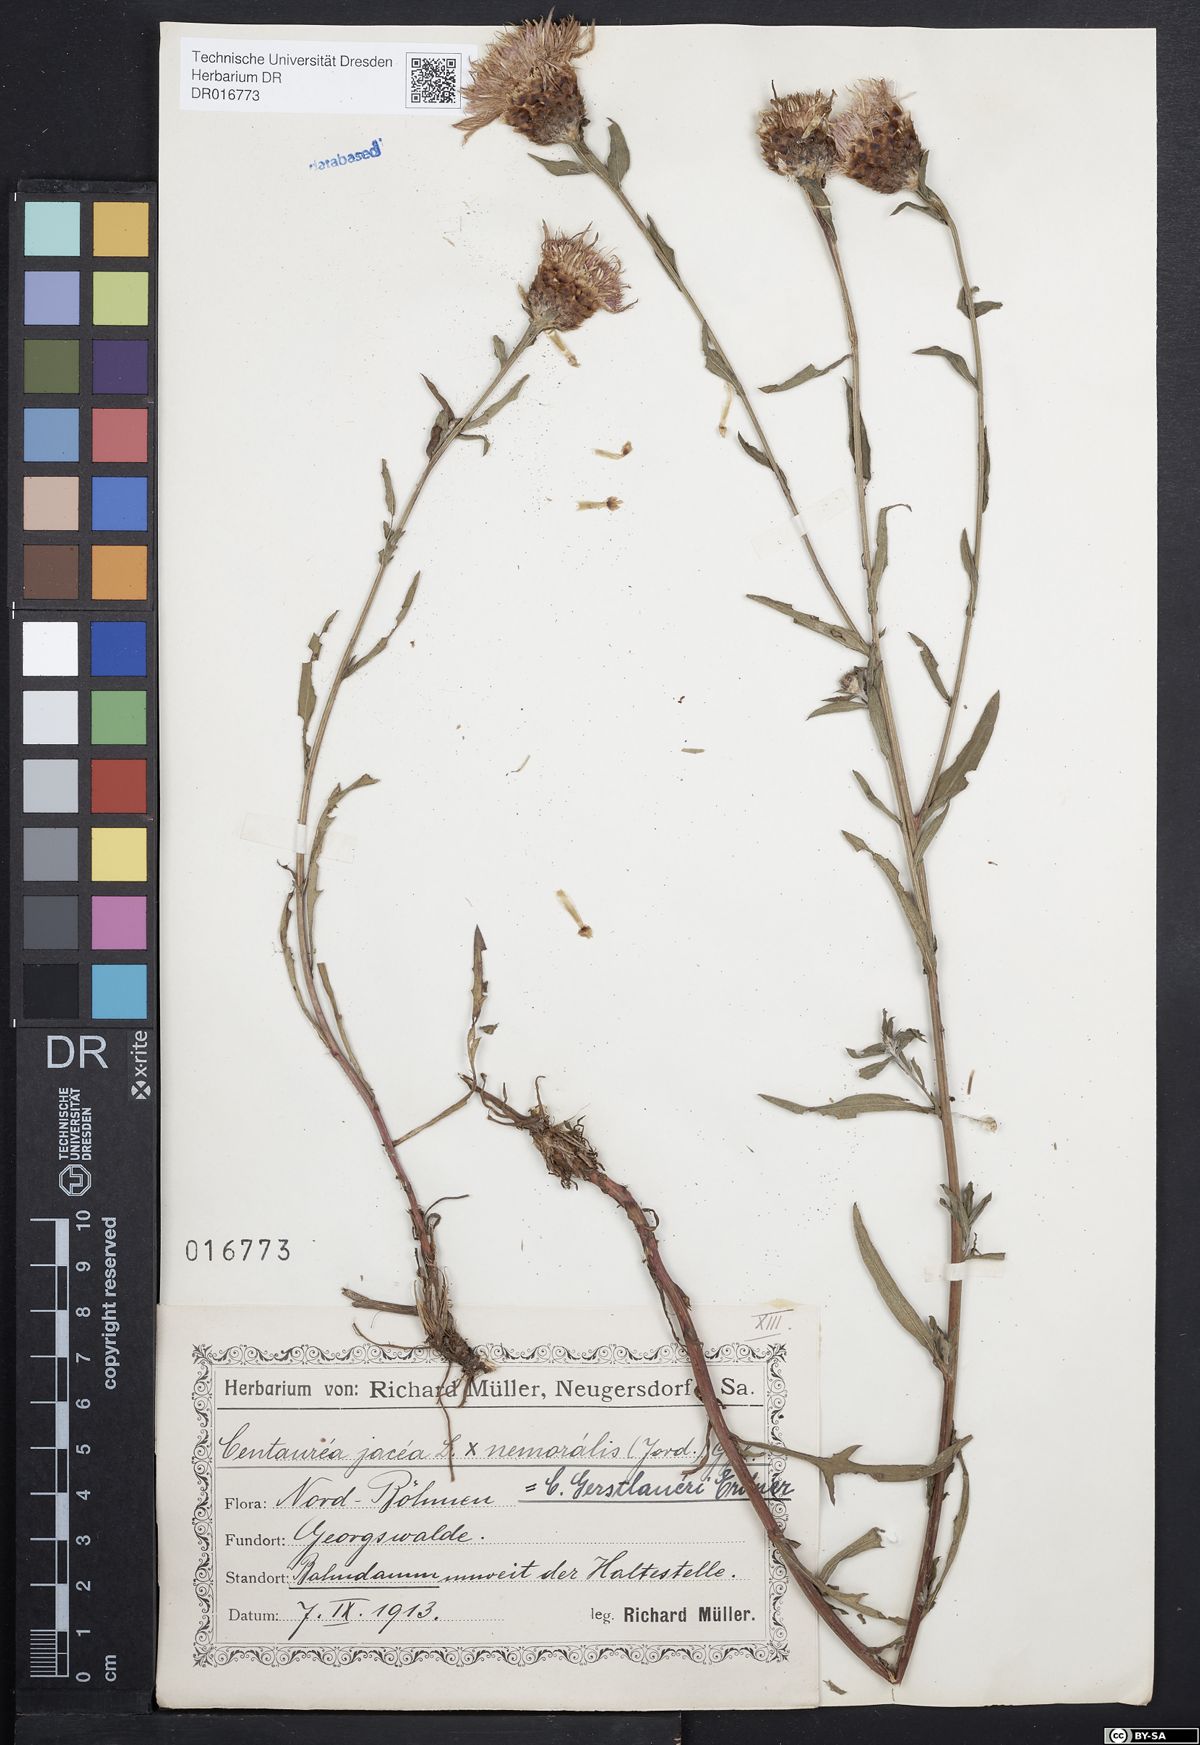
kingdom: Plantae
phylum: Tracheophyta
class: Magnoliopsida
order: Asterales
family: Asteraceae
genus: Centaurea
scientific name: Centaurea jacea
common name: Brown knapweed
